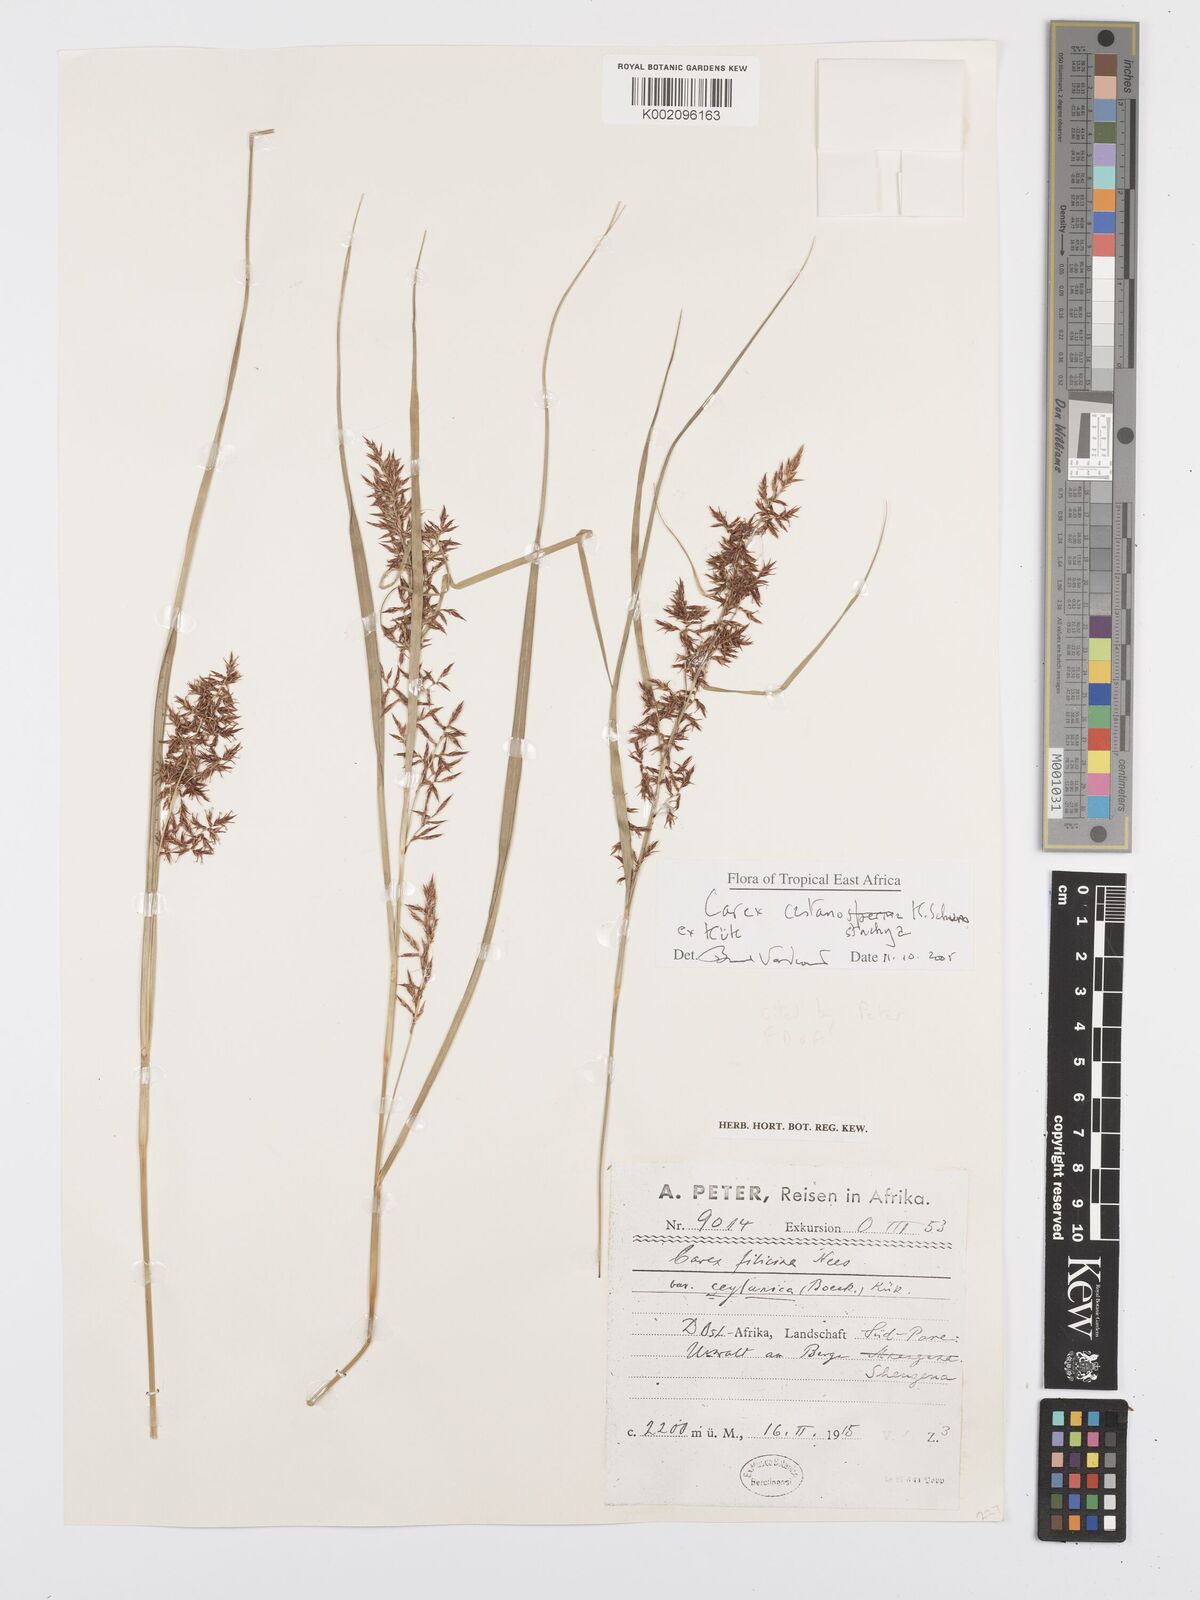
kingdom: Plantae
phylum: Tracheophyta
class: Liliopsida
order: Poales
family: Cyperaceae
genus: Carex
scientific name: Carex castanostachya
